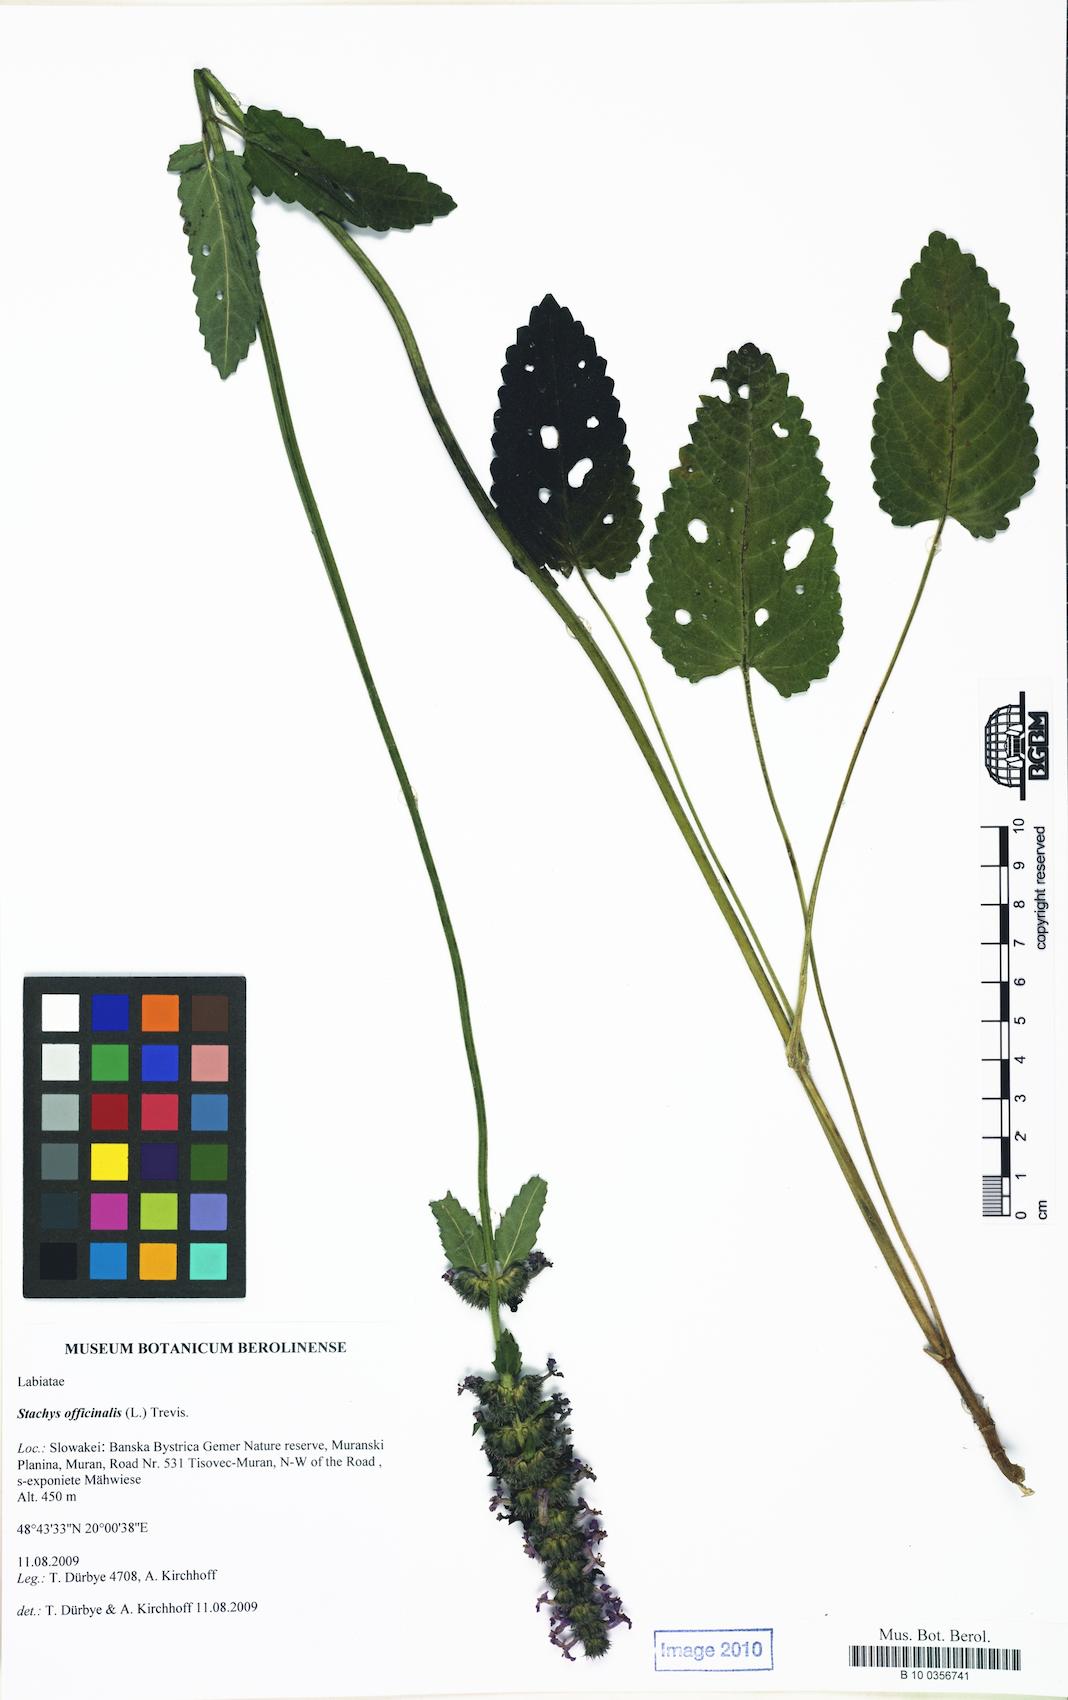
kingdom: Plantae
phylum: Tracheophyta
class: Magnoliopsida
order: Lamiales
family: Lamiaceae
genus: Betonica
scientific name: Betonica officinalis
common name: Bishop's-wort
